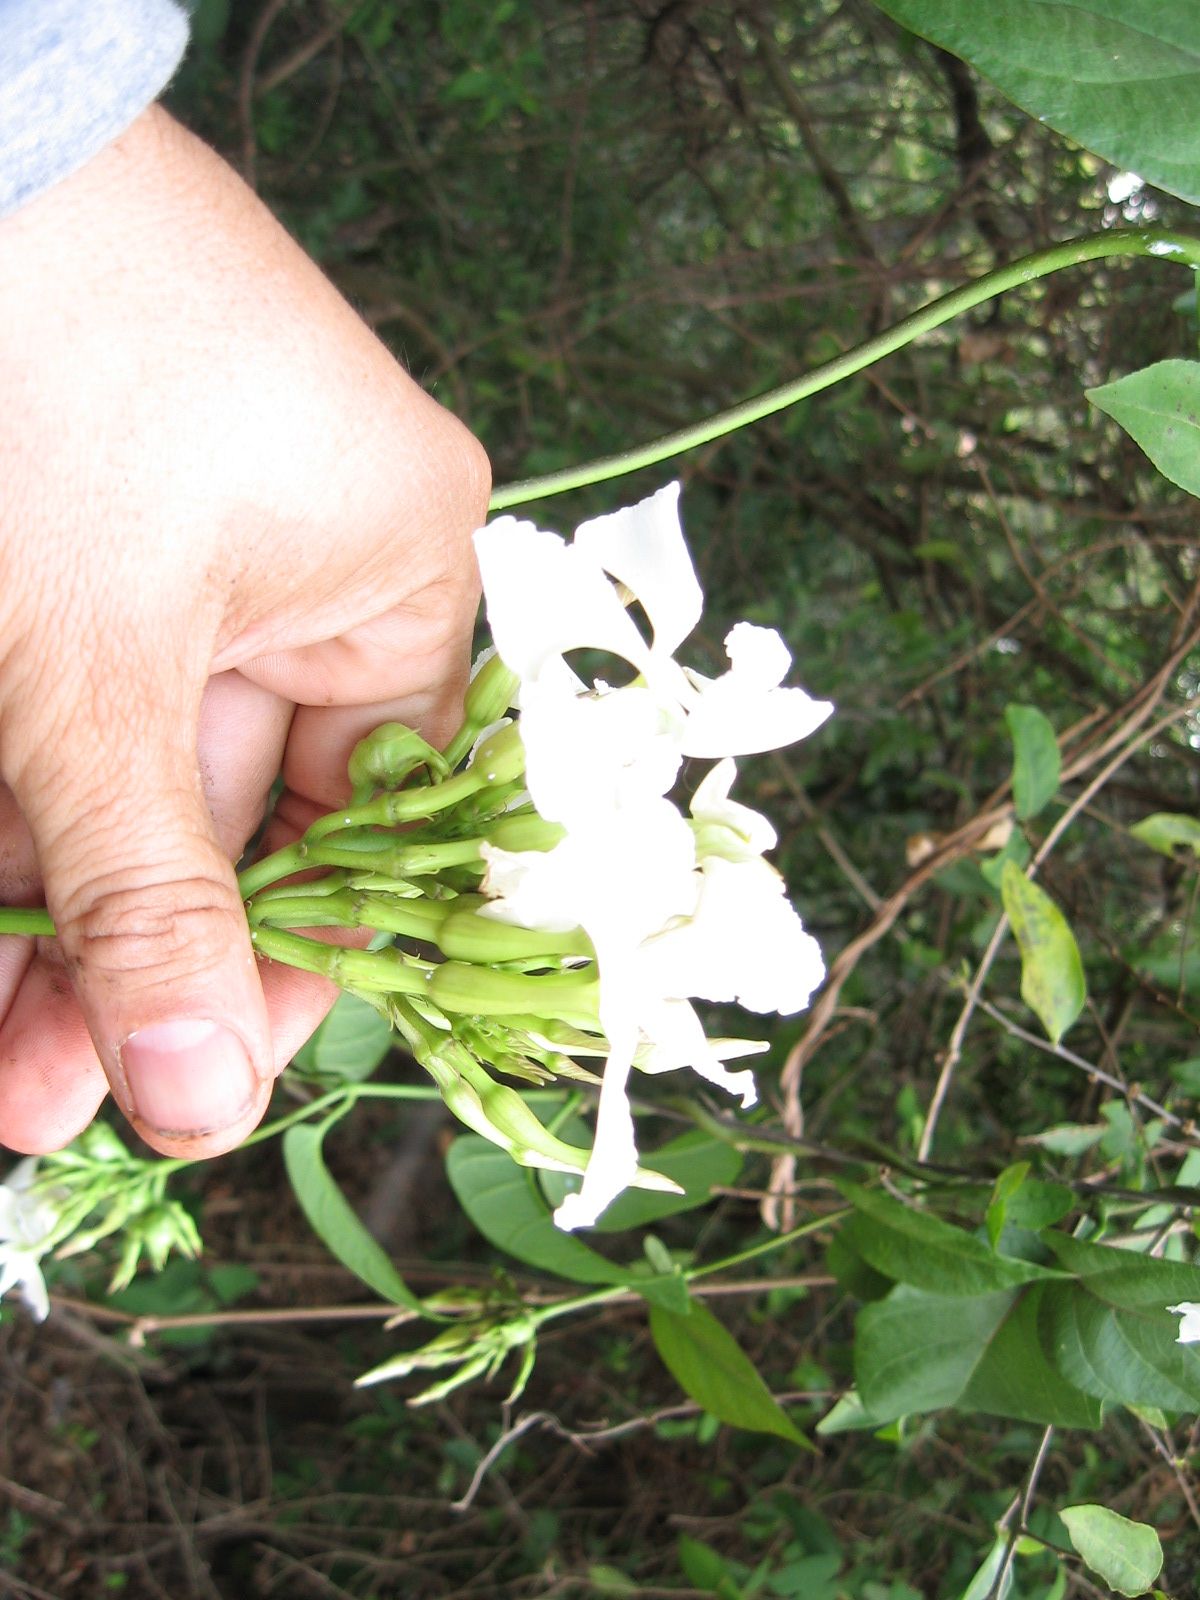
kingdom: Plantae
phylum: Tracheophyta
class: Magnoliopsida
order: Gentianales
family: Apocynaceae
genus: Echites
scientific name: Echites yucatanensis
